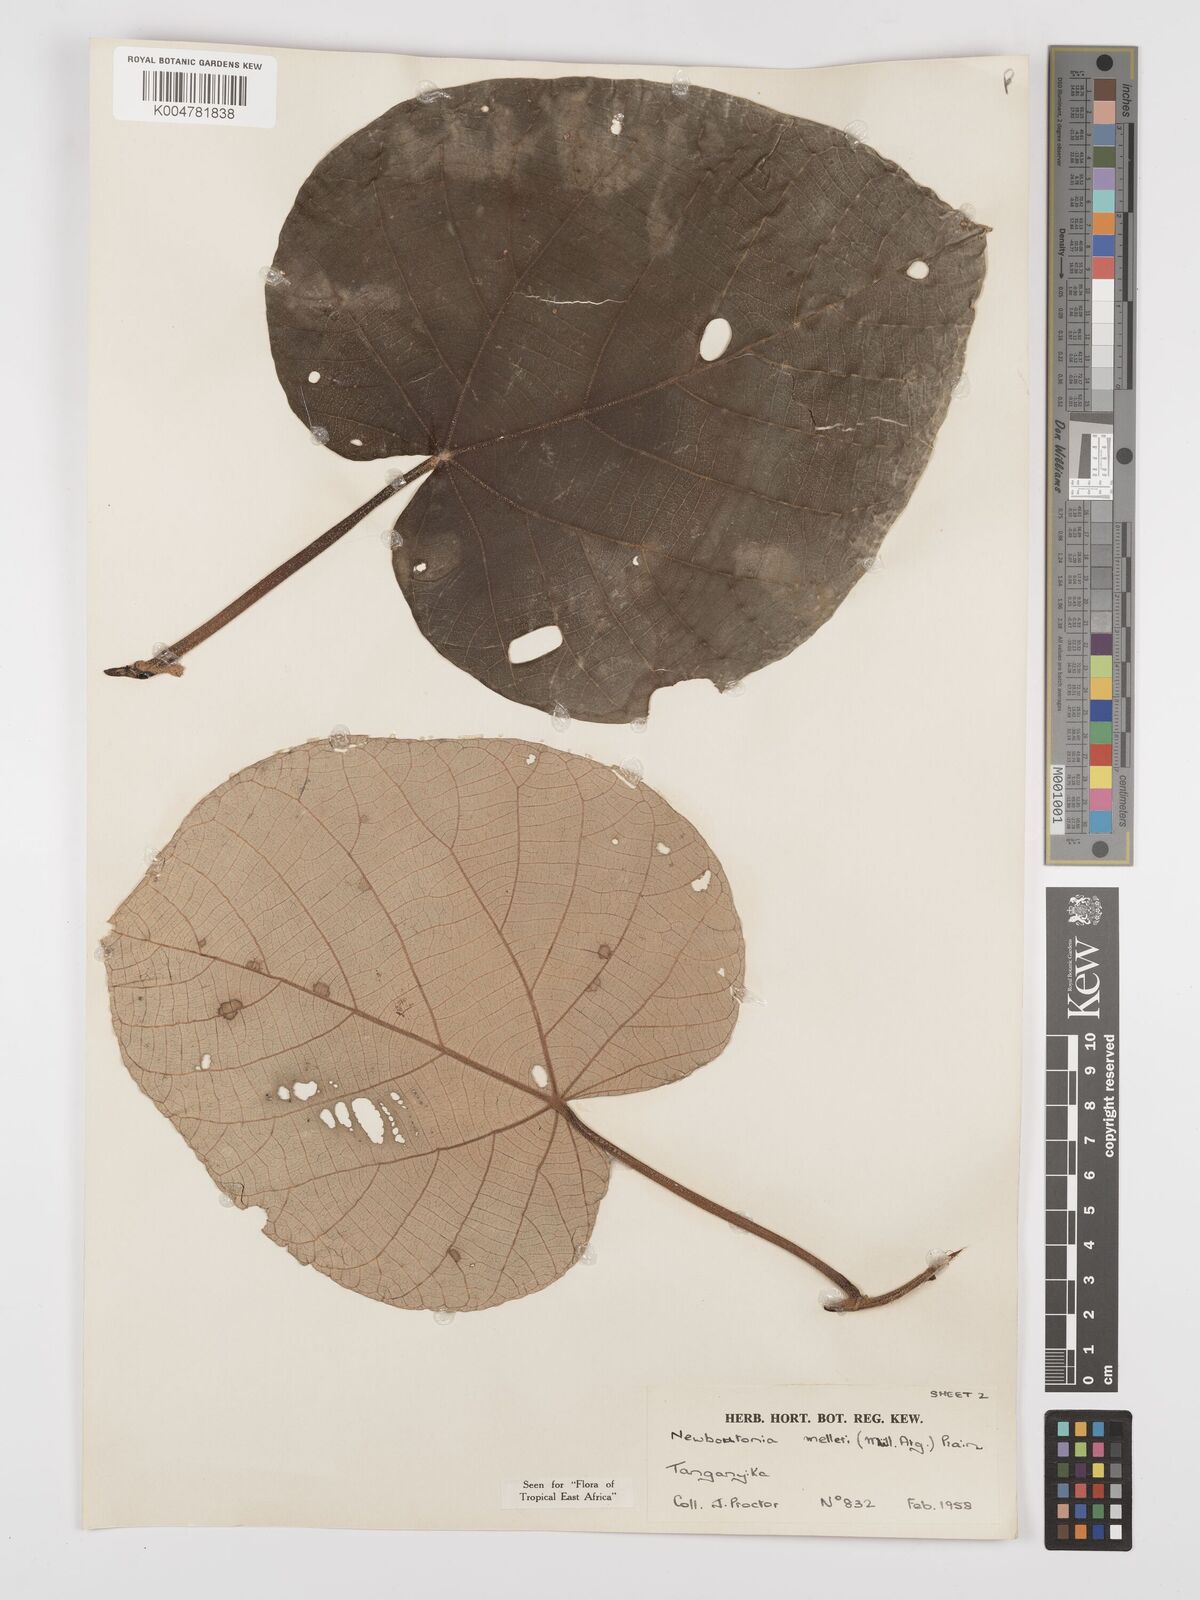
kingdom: Plantae
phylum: Tracheophyta
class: Magnoliopsida
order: Malpighiales
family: Euphorbiaceae
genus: Neoboutonia
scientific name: Neoboutonia melleri
